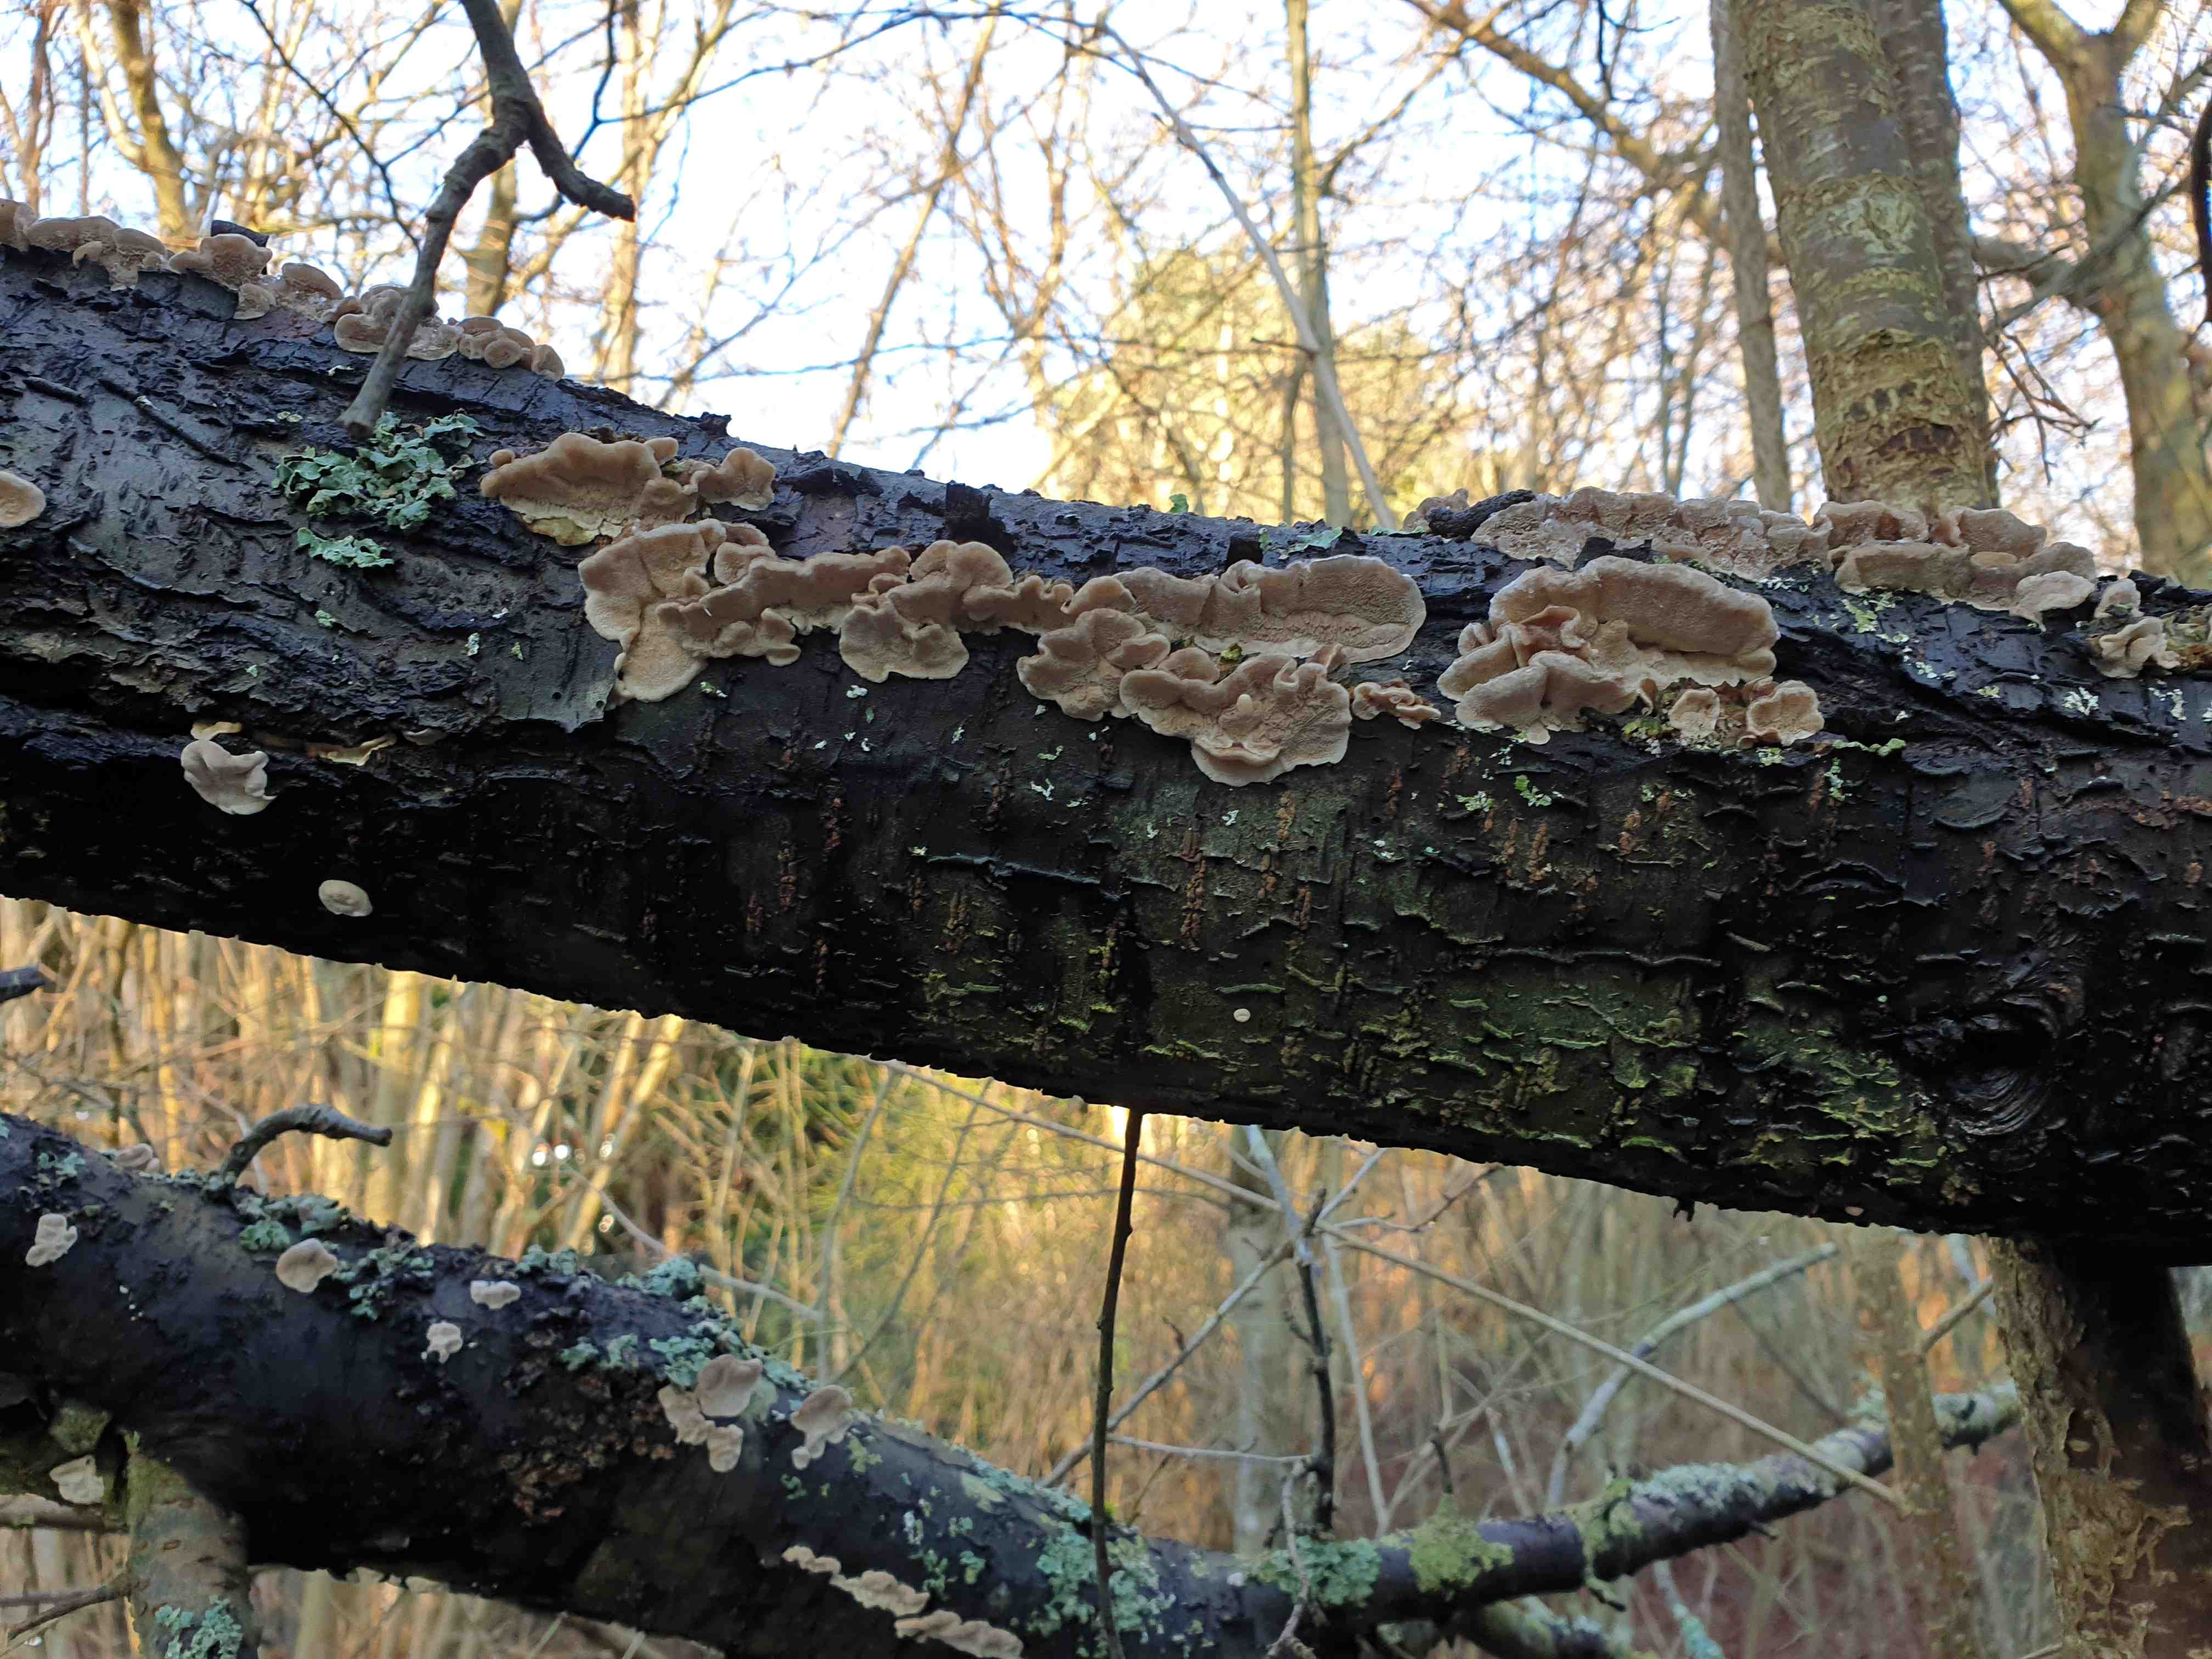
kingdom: Fungi
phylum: Basidiomycota
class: Agaricomycetes
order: Polyporales
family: Polyporaceae
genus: Trametes
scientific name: Trametes
